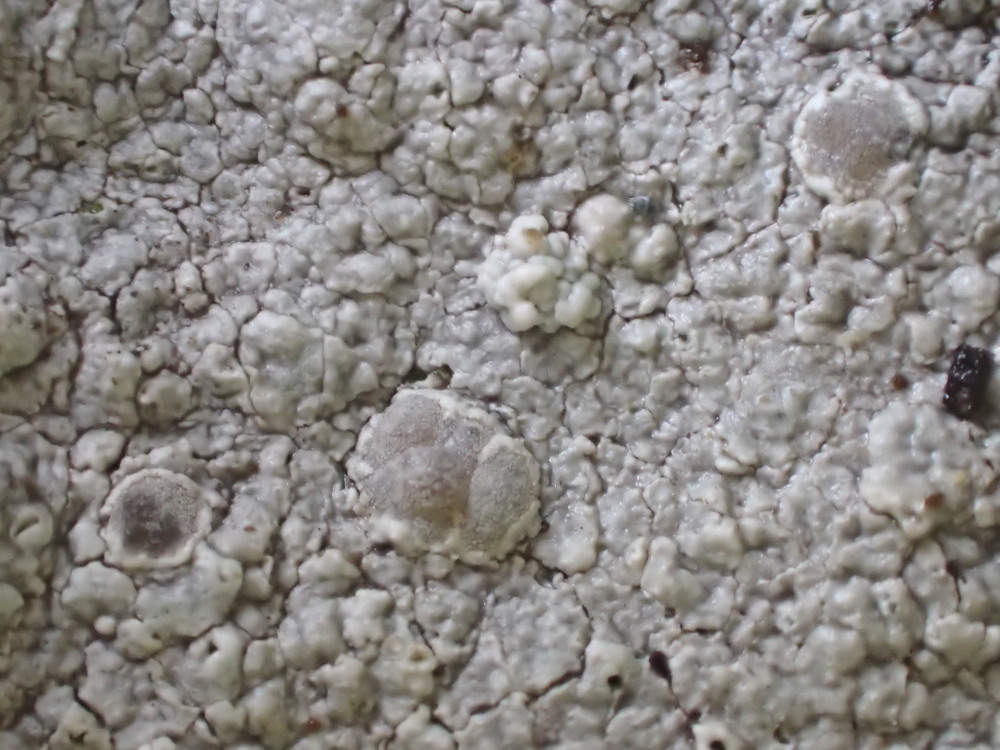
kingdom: Fungi
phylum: Ascomycota
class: Lecanoromycetes
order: Lecanorales
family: Lecanoraceae
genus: Glaucomaria
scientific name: Glaucomaria rupicola
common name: stengærde-kantskivelav
